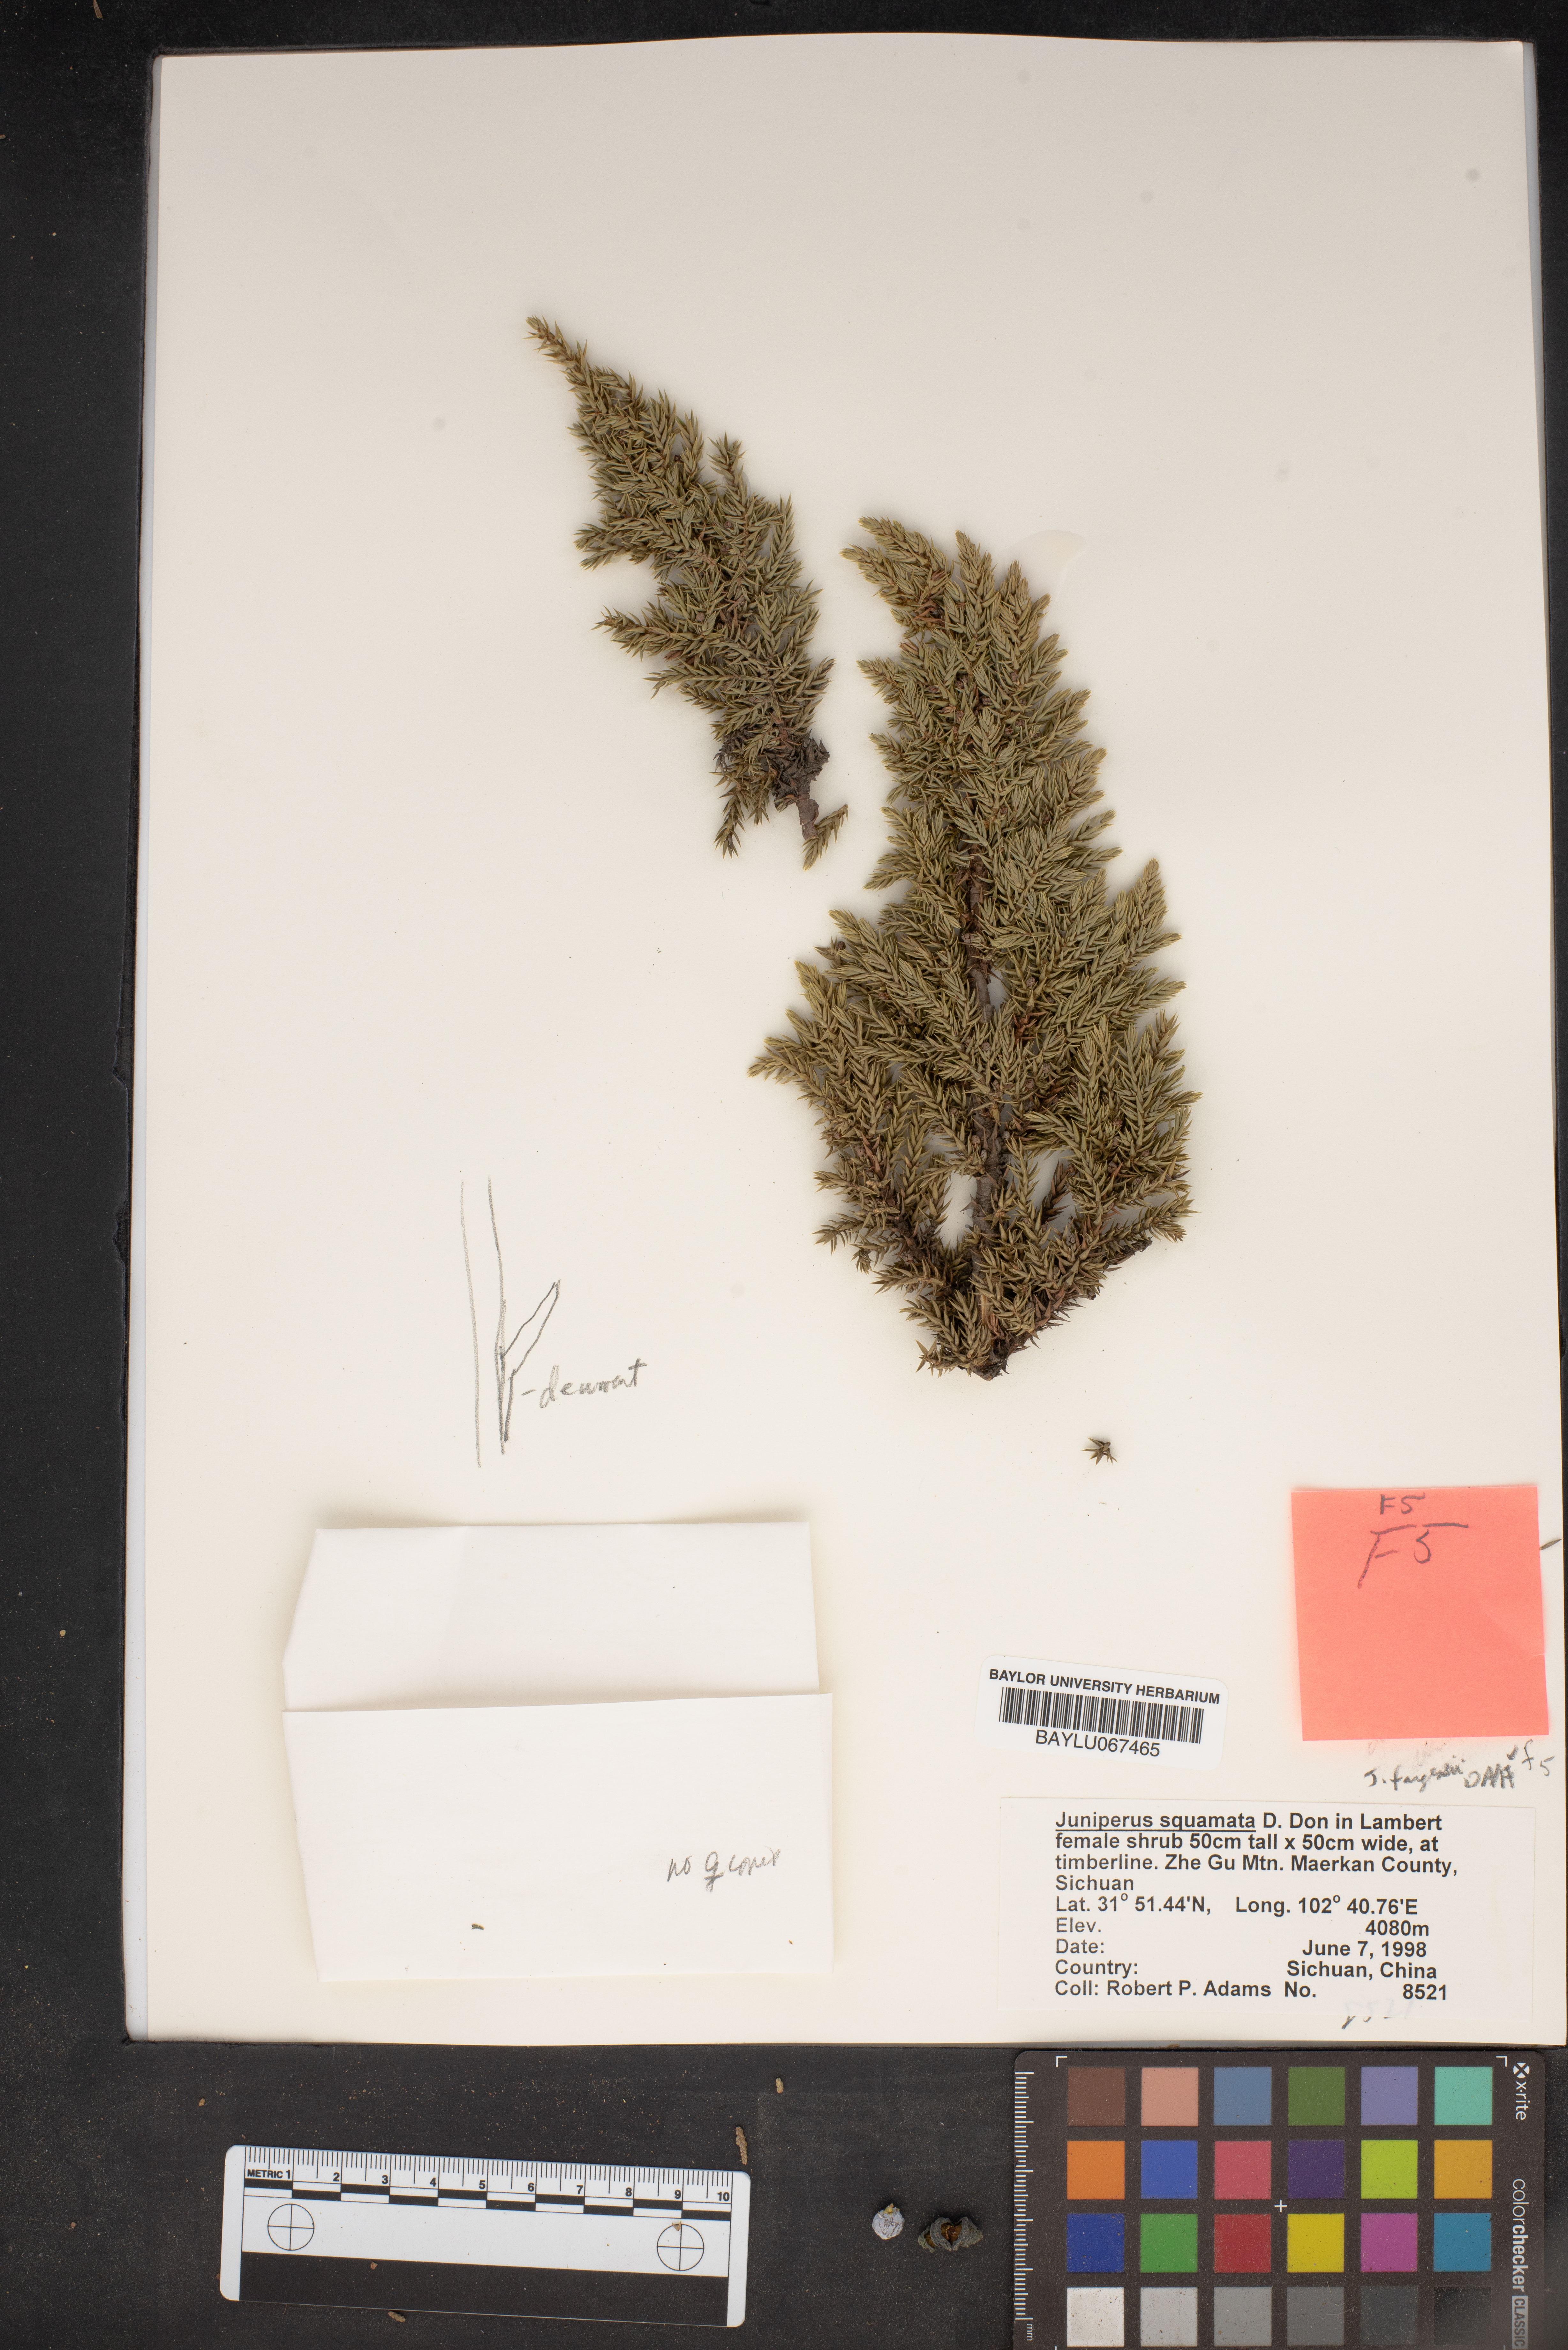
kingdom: Plantae
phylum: Tracheophyta
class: Pinopsida
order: Pinales
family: Cupressaceae
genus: Juniperus
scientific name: Juniperus squamata
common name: Flaky juniper
